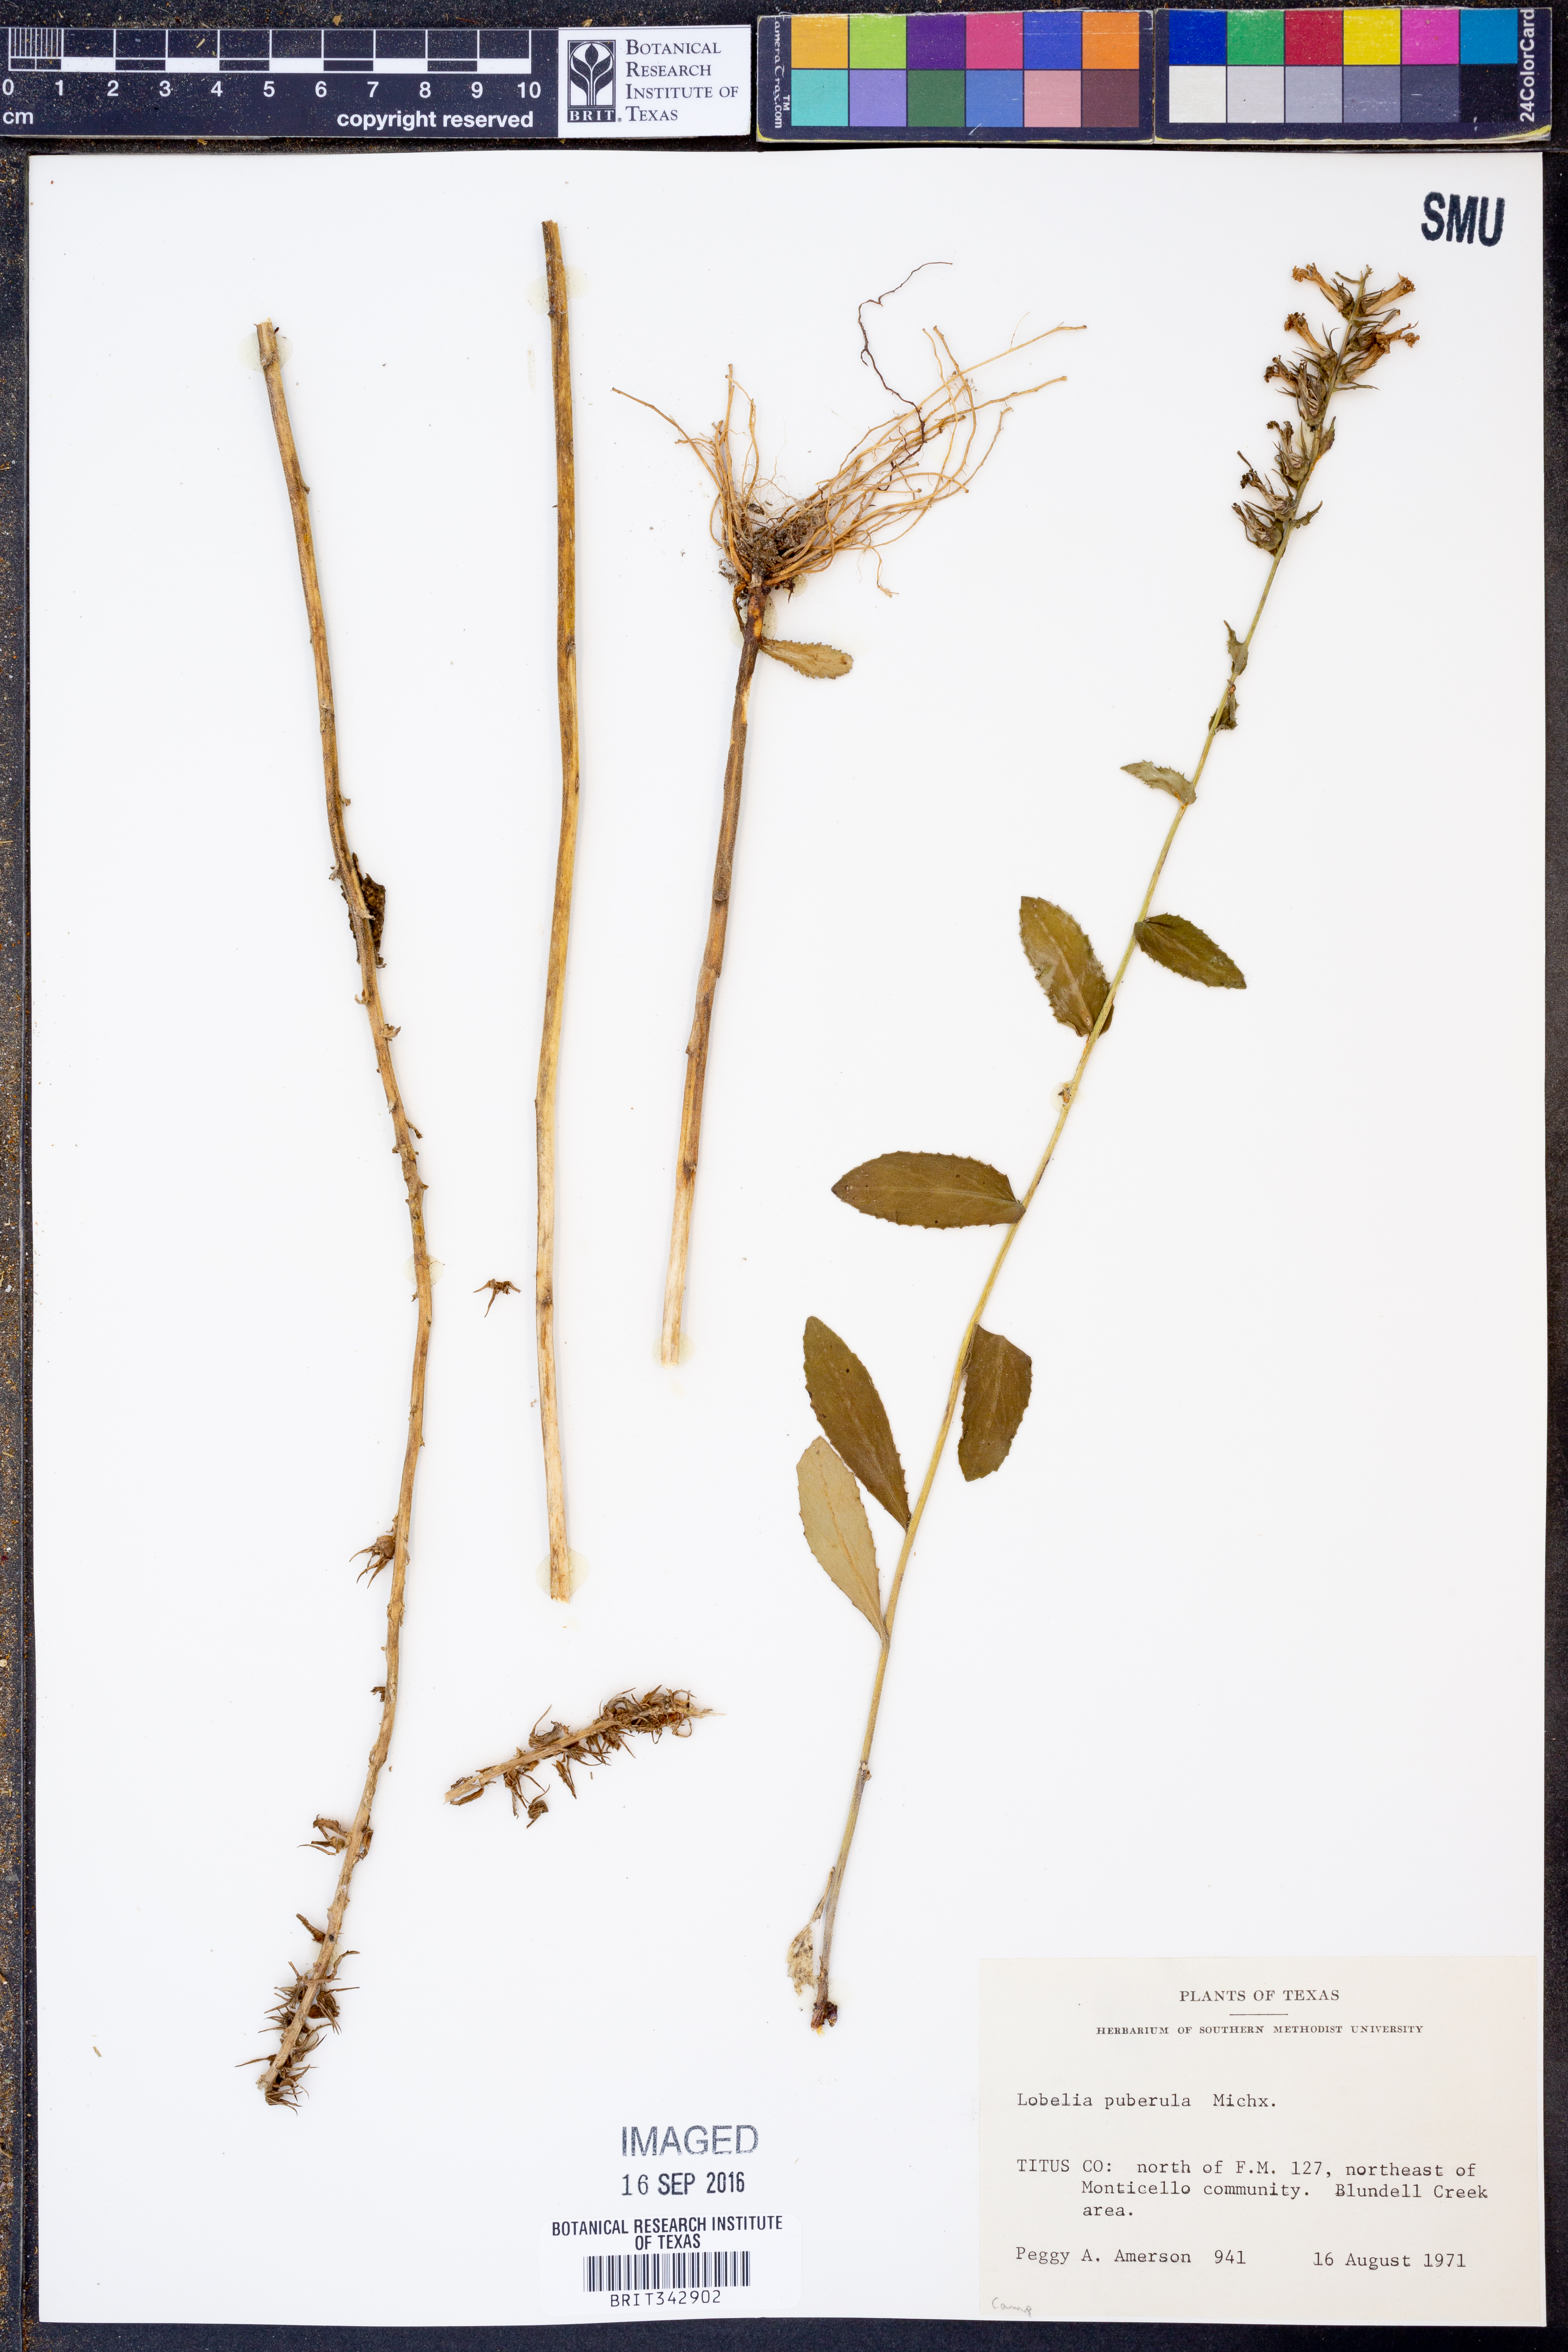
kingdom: Plantae
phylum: Tracheophyta
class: Magnoliopsida
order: Asterales
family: Campanulaceae
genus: Lobelia
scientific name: Lobelia puberula
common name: Purple dewdrop
